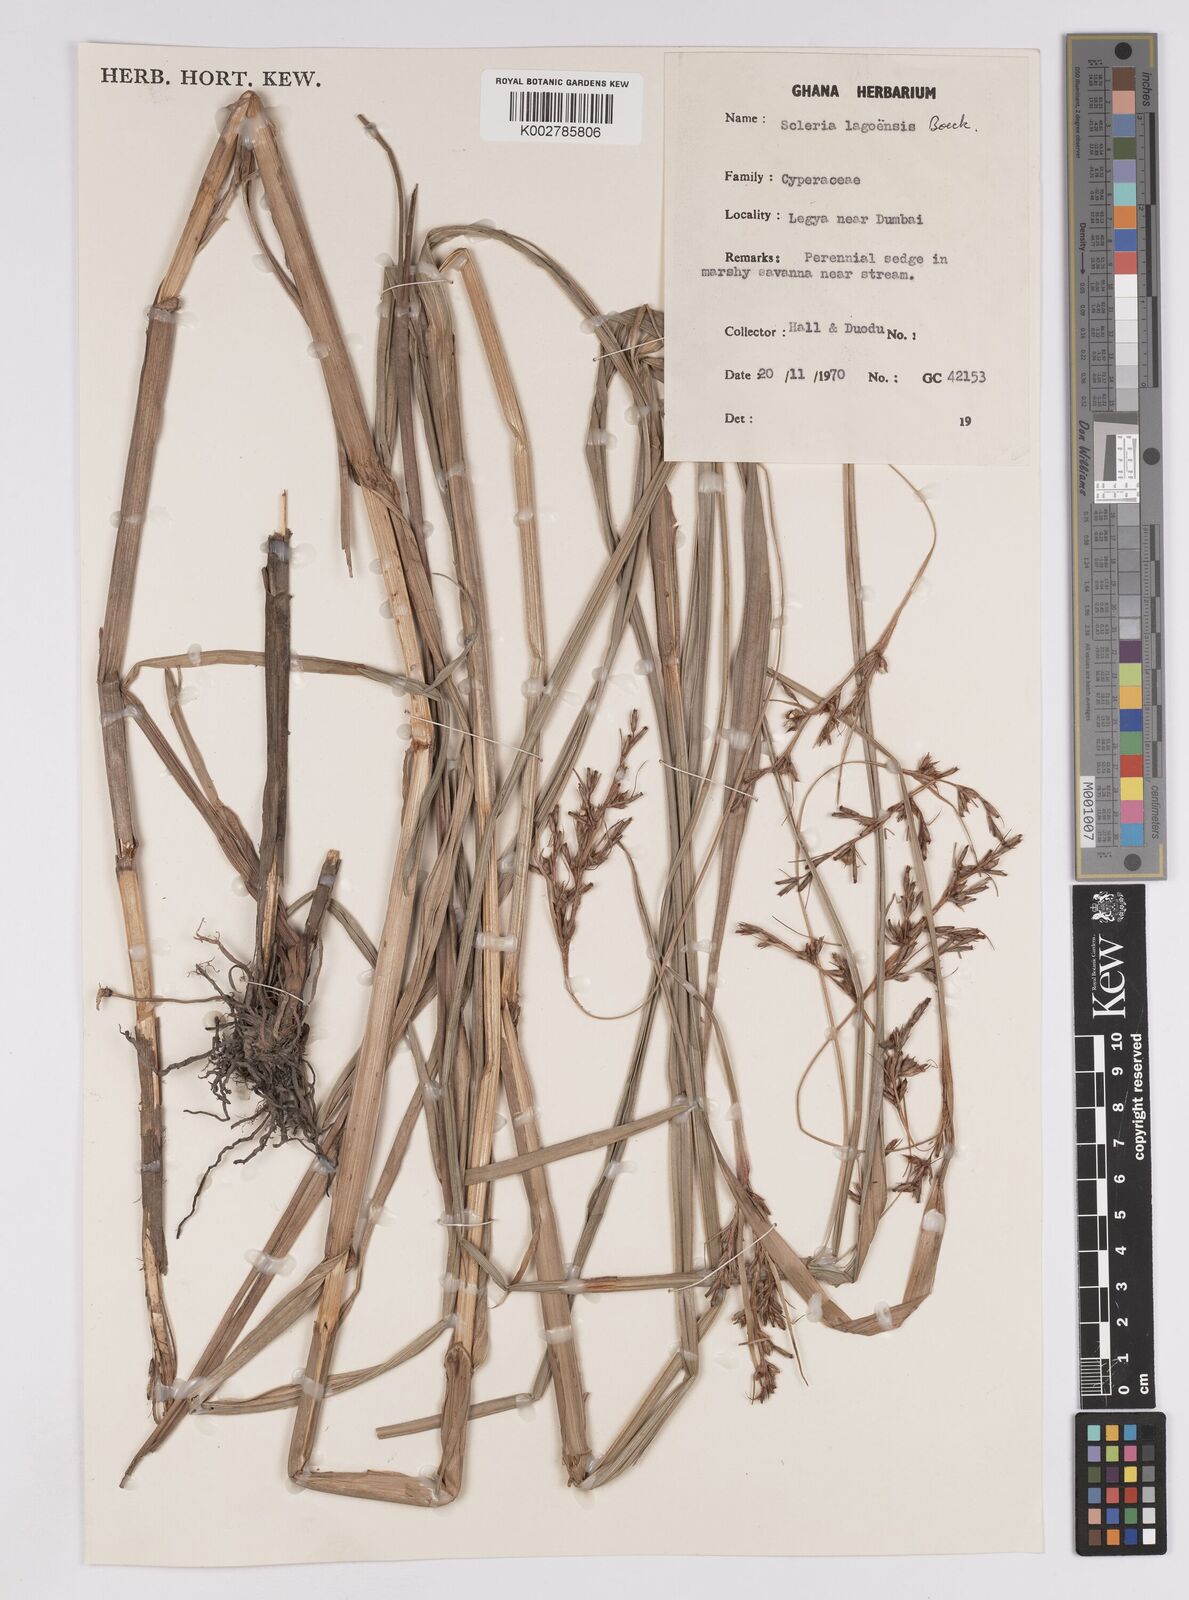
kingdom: Plantae
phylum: Tracheophyta
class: Liliopsida
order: Poales
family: Cyperaceae
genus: Scleria
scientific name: Scleria lagoensis
